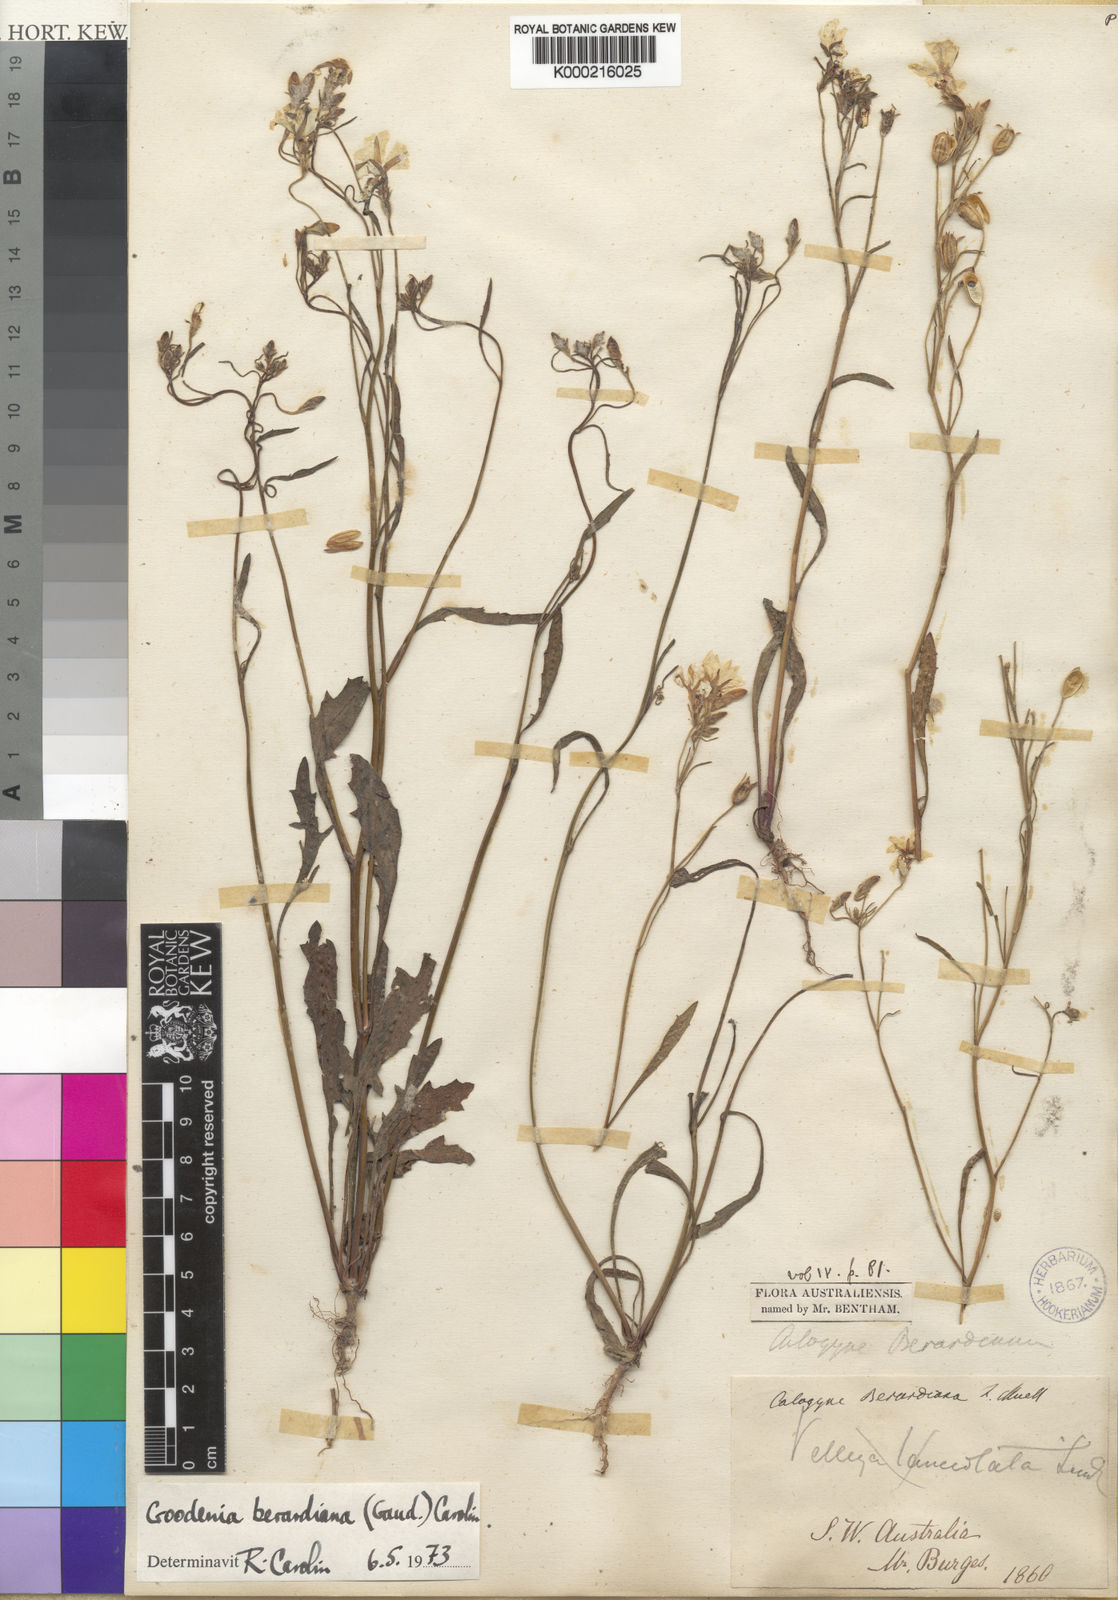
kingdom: Plantae
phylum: Tracheophyta
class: Magnoliopsida
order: Asterales
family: Goodeniaceae
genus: Goodenia
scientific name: Goodenia berardiana
